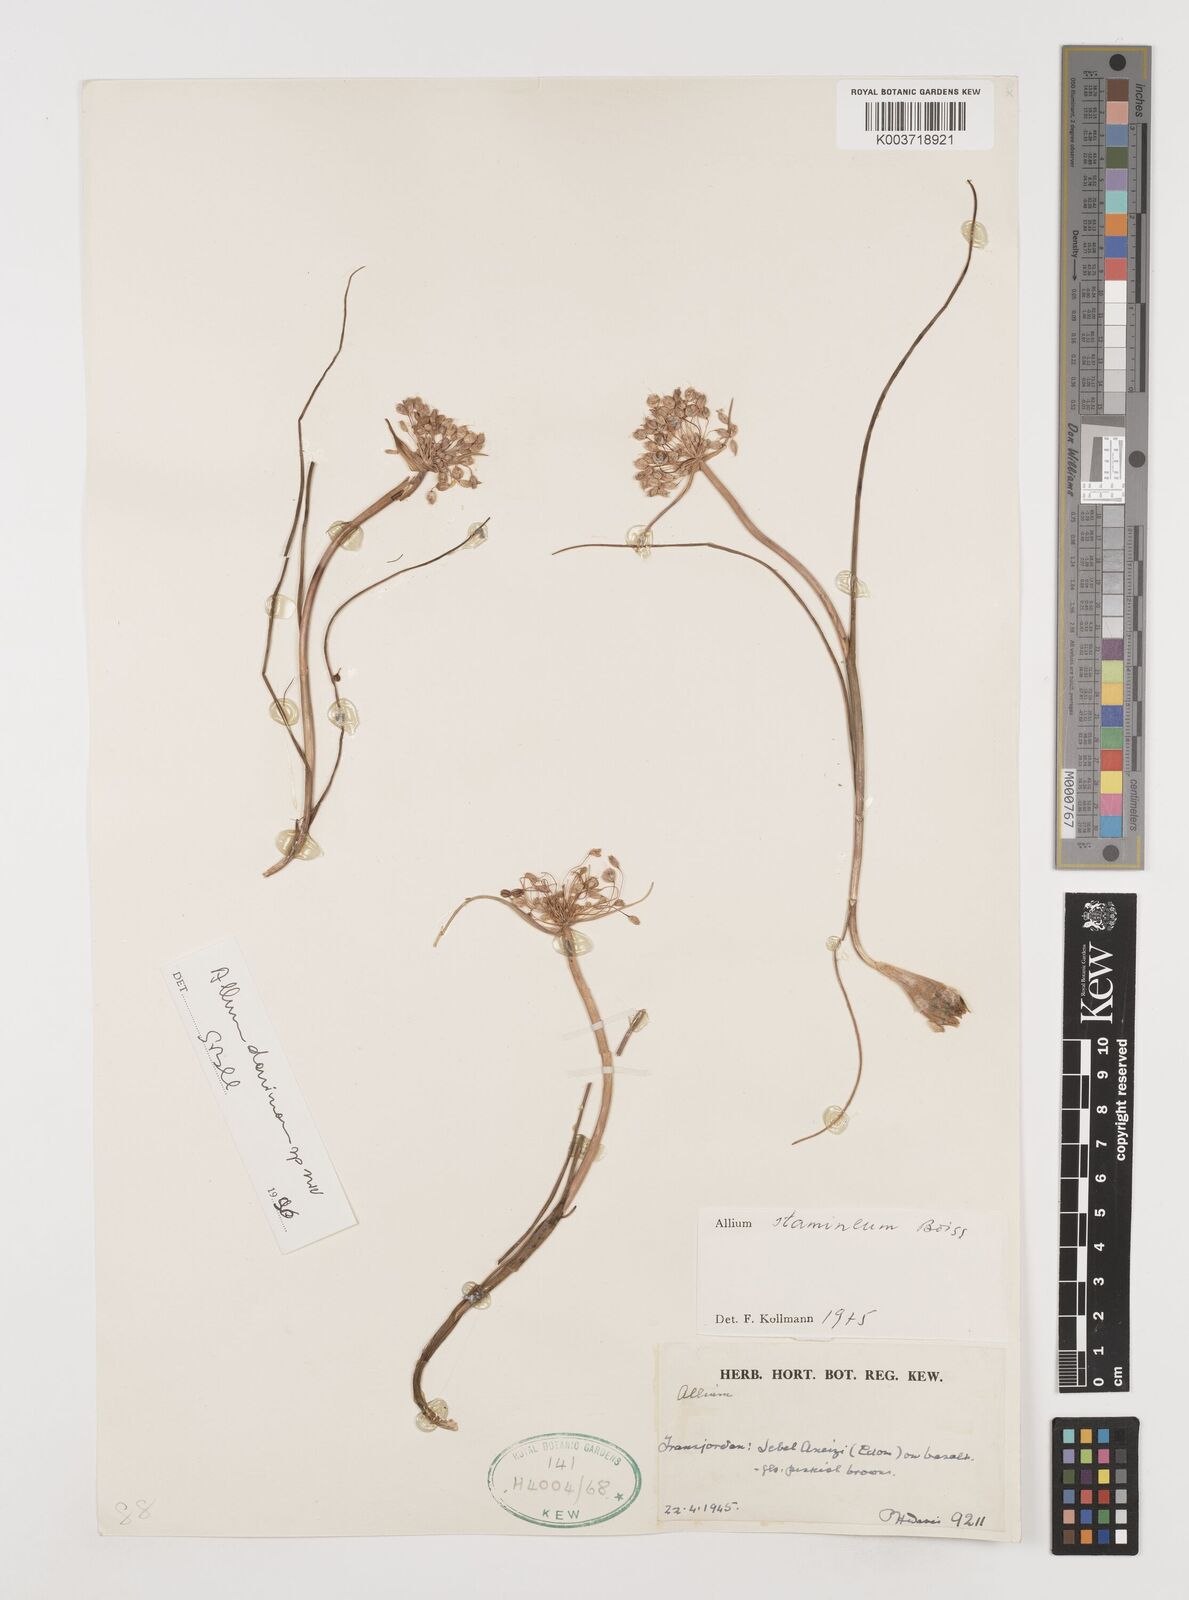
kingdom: Plantae
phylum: Tracheophyta
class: Liliopsida
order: Asparagales
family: Amaryllidaceae
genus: Allium
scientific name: Allium stamineum
